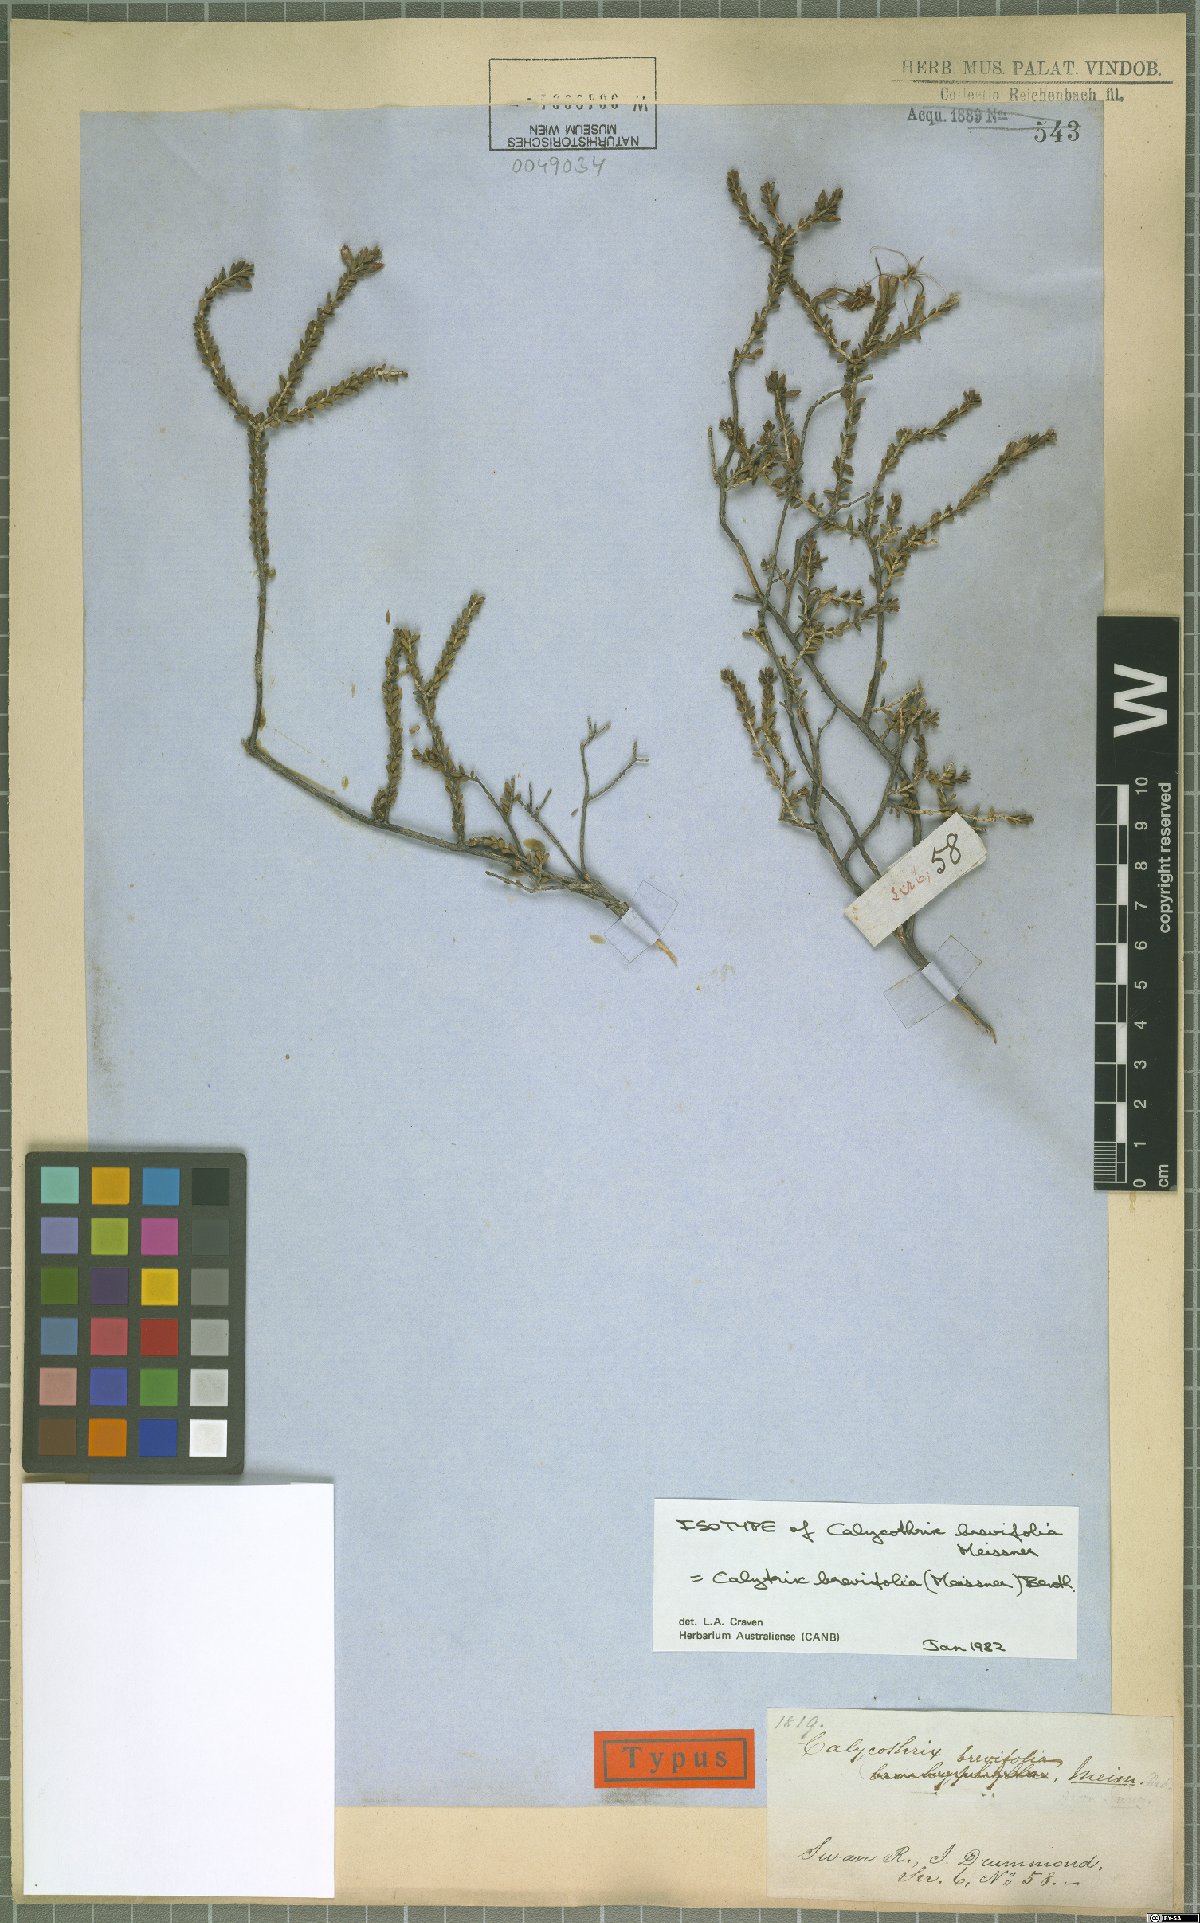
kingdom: Plantae
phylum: Tracheophyta
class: Magnoliopsida
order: Myrtales
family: Myrtaceae
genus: Calytrix
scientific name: Calytrix brevifolia
